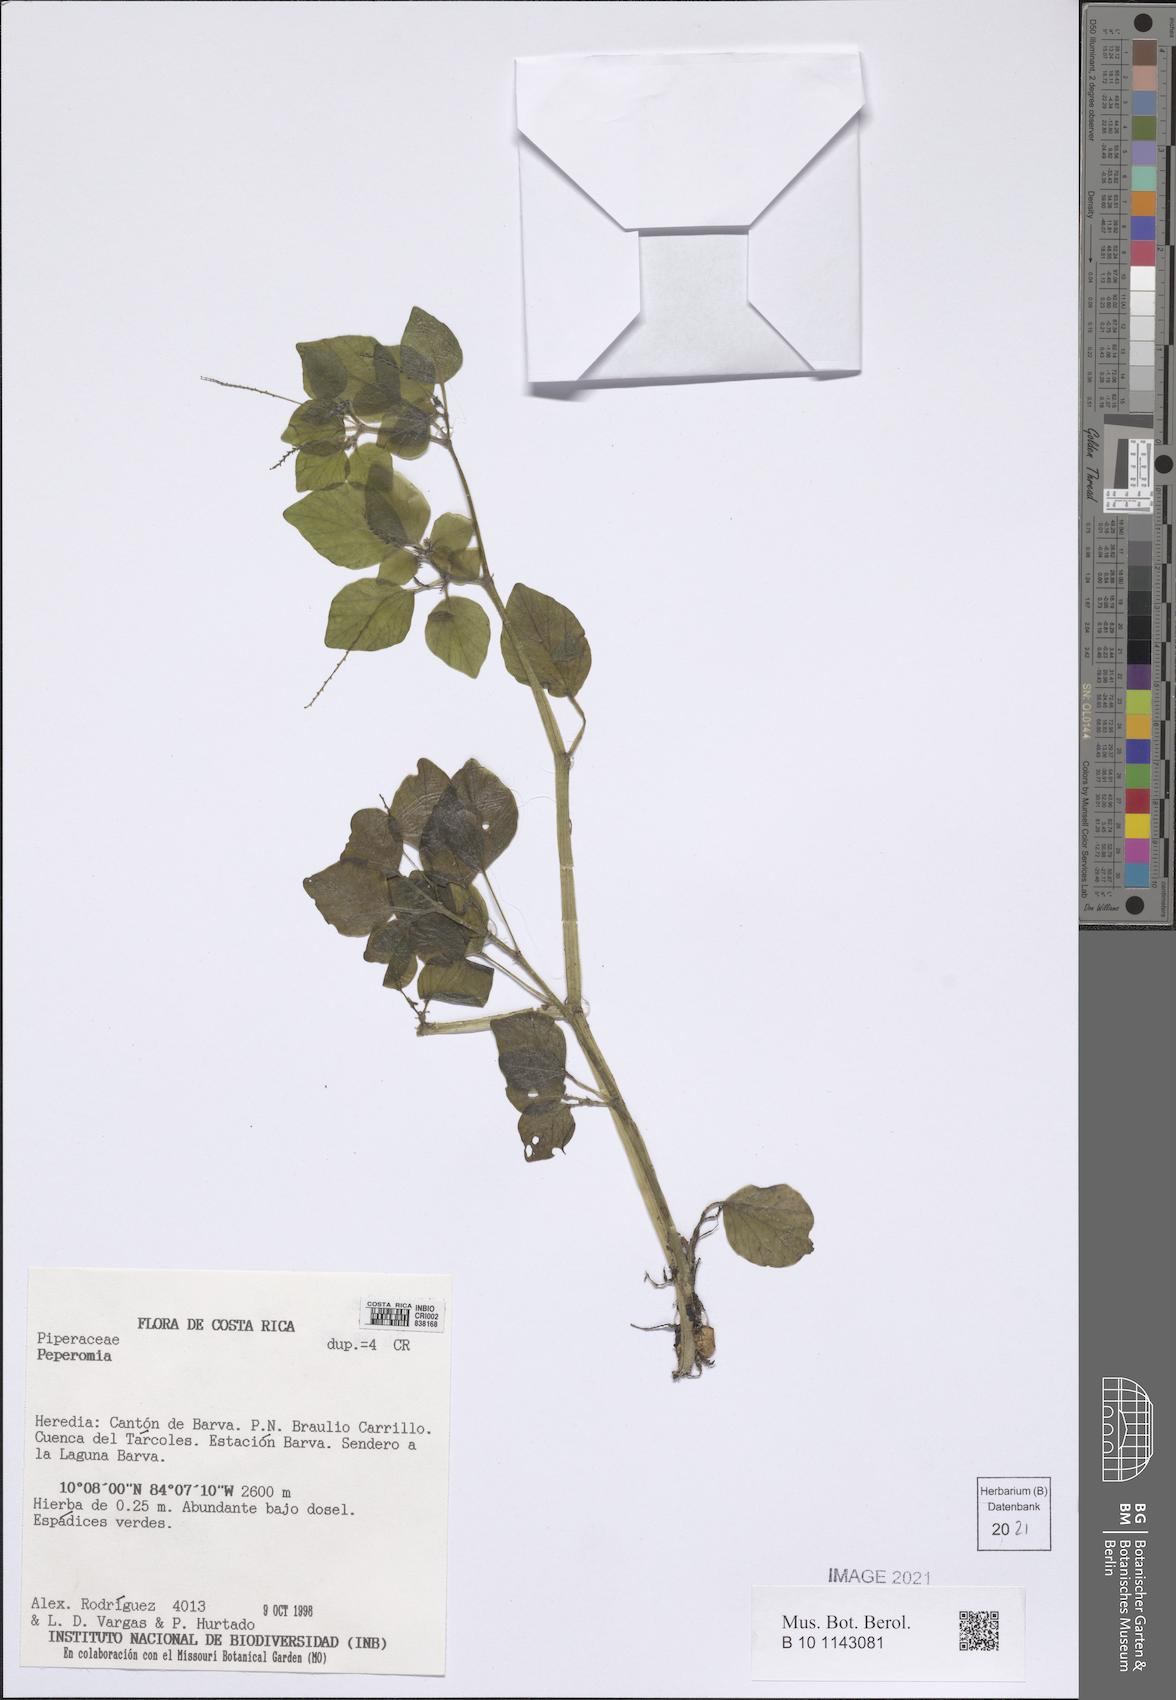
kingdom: Plantae
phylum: Tracheophyta
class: Magnoliopsida
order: Piperales
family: Piperaceae
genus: Peperomia
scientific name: Peperomia
